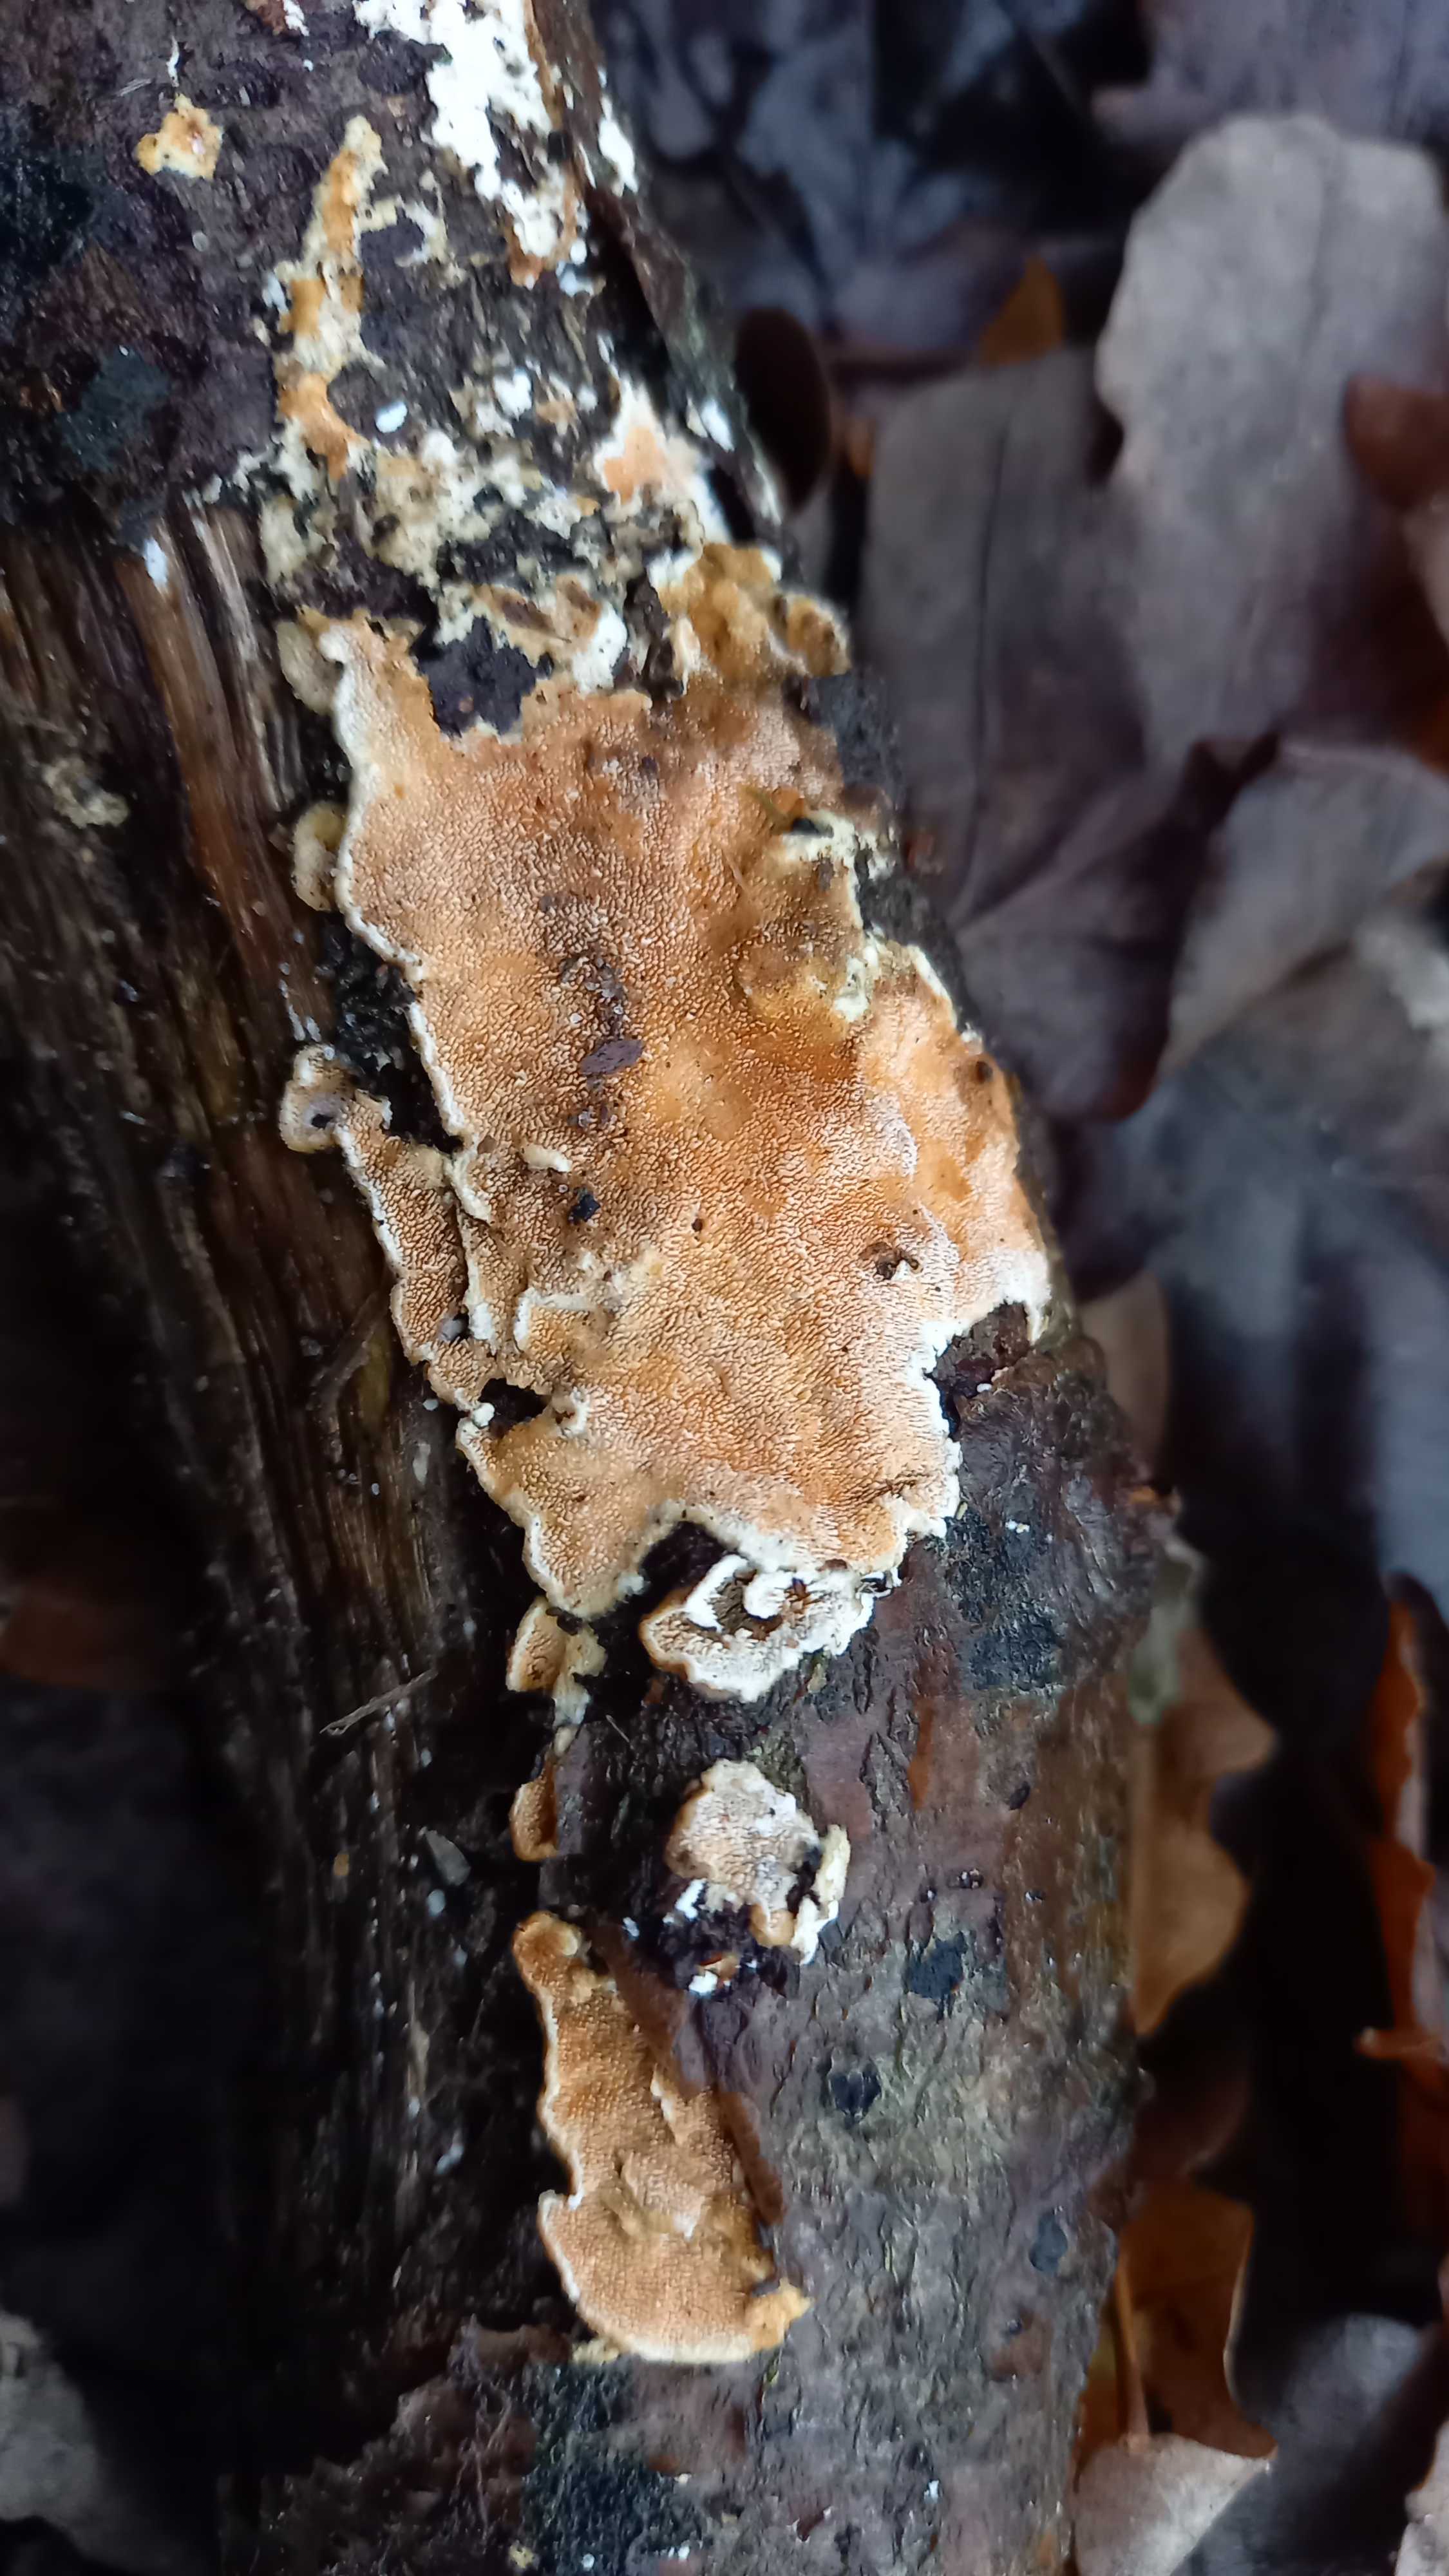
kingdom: Fungi
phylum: Basidiomycota
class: Agaricomycetes
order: Polyporales
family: Steccherinaceae
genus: Steccherinum
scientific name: Steccherinum ochraceum
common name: almindelig skønpig
